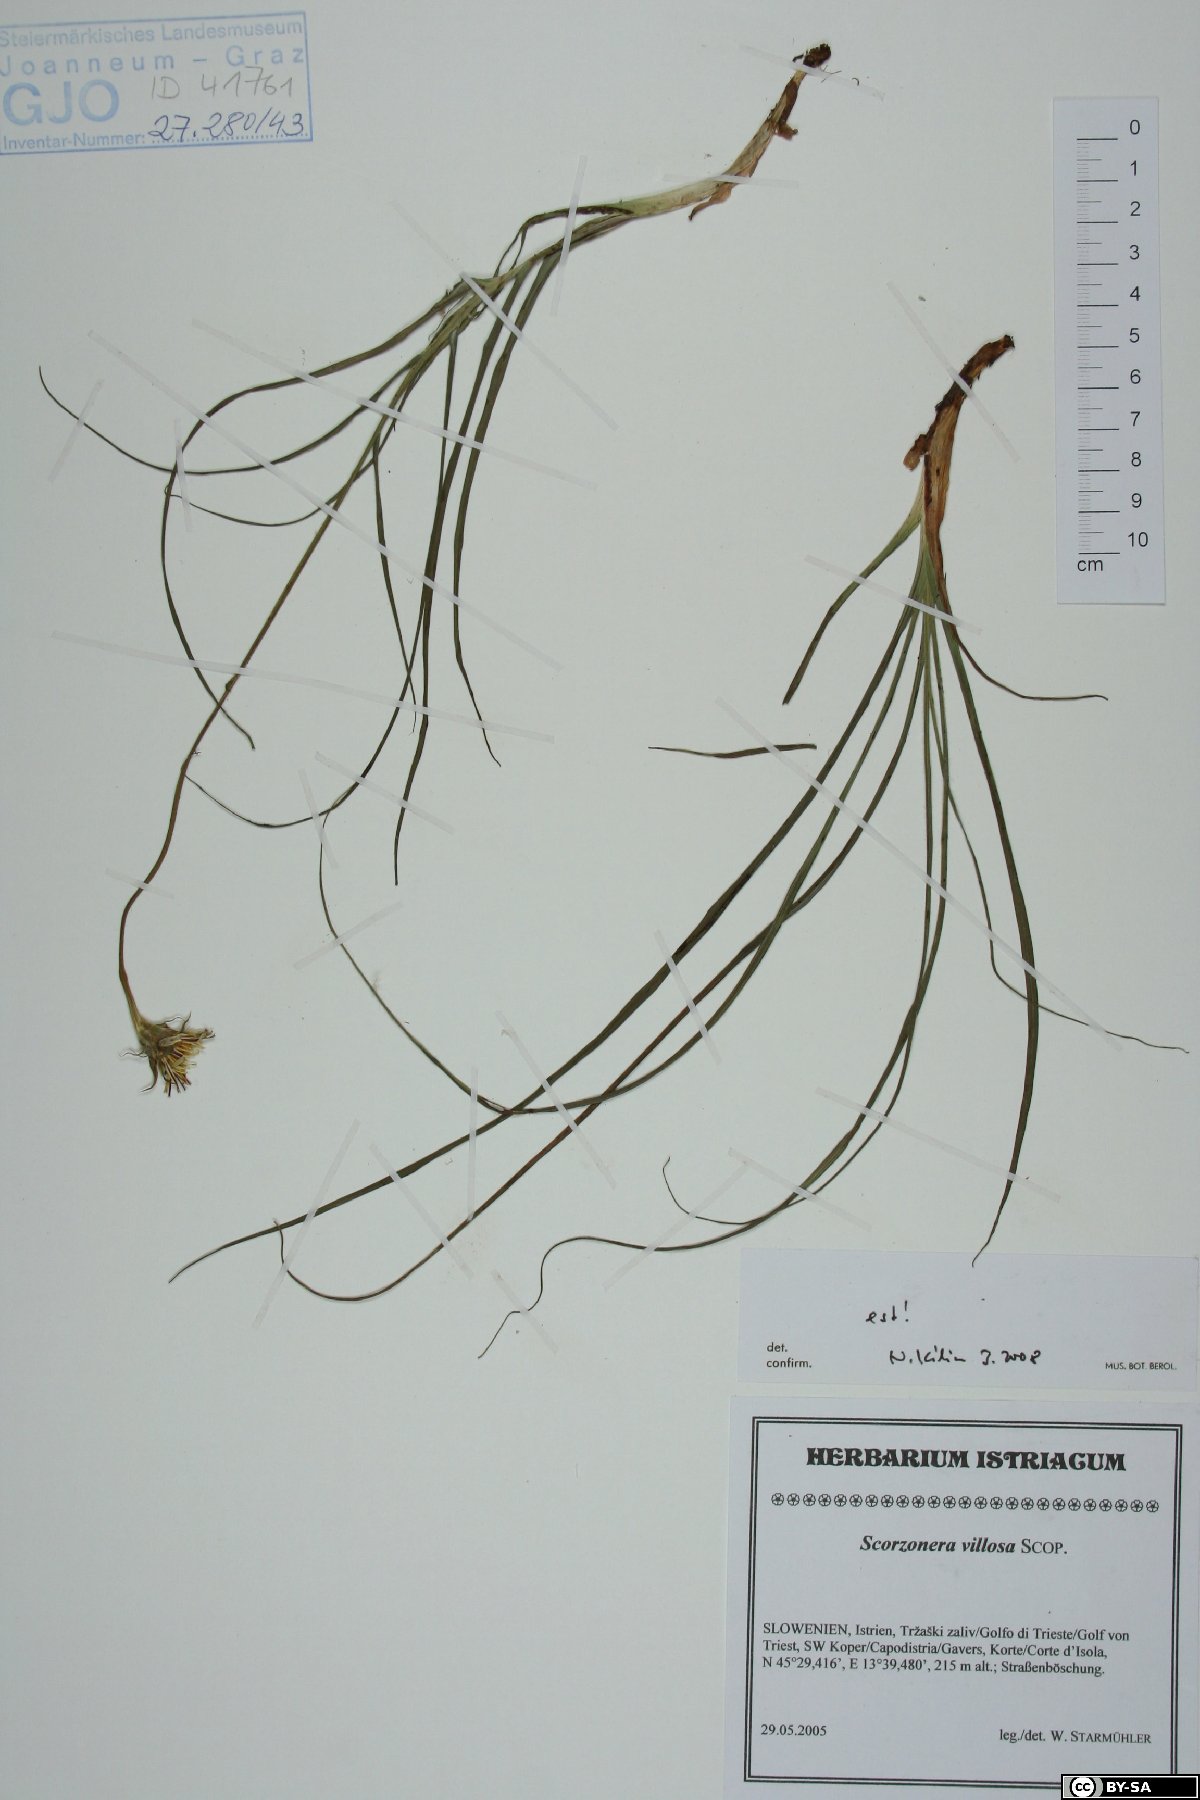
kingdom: Plantae
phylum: Tracheophyta
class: Magnoliopsida
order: Asterales
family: Asteraceae
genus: Gelasia
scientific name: Gelasia villosa
